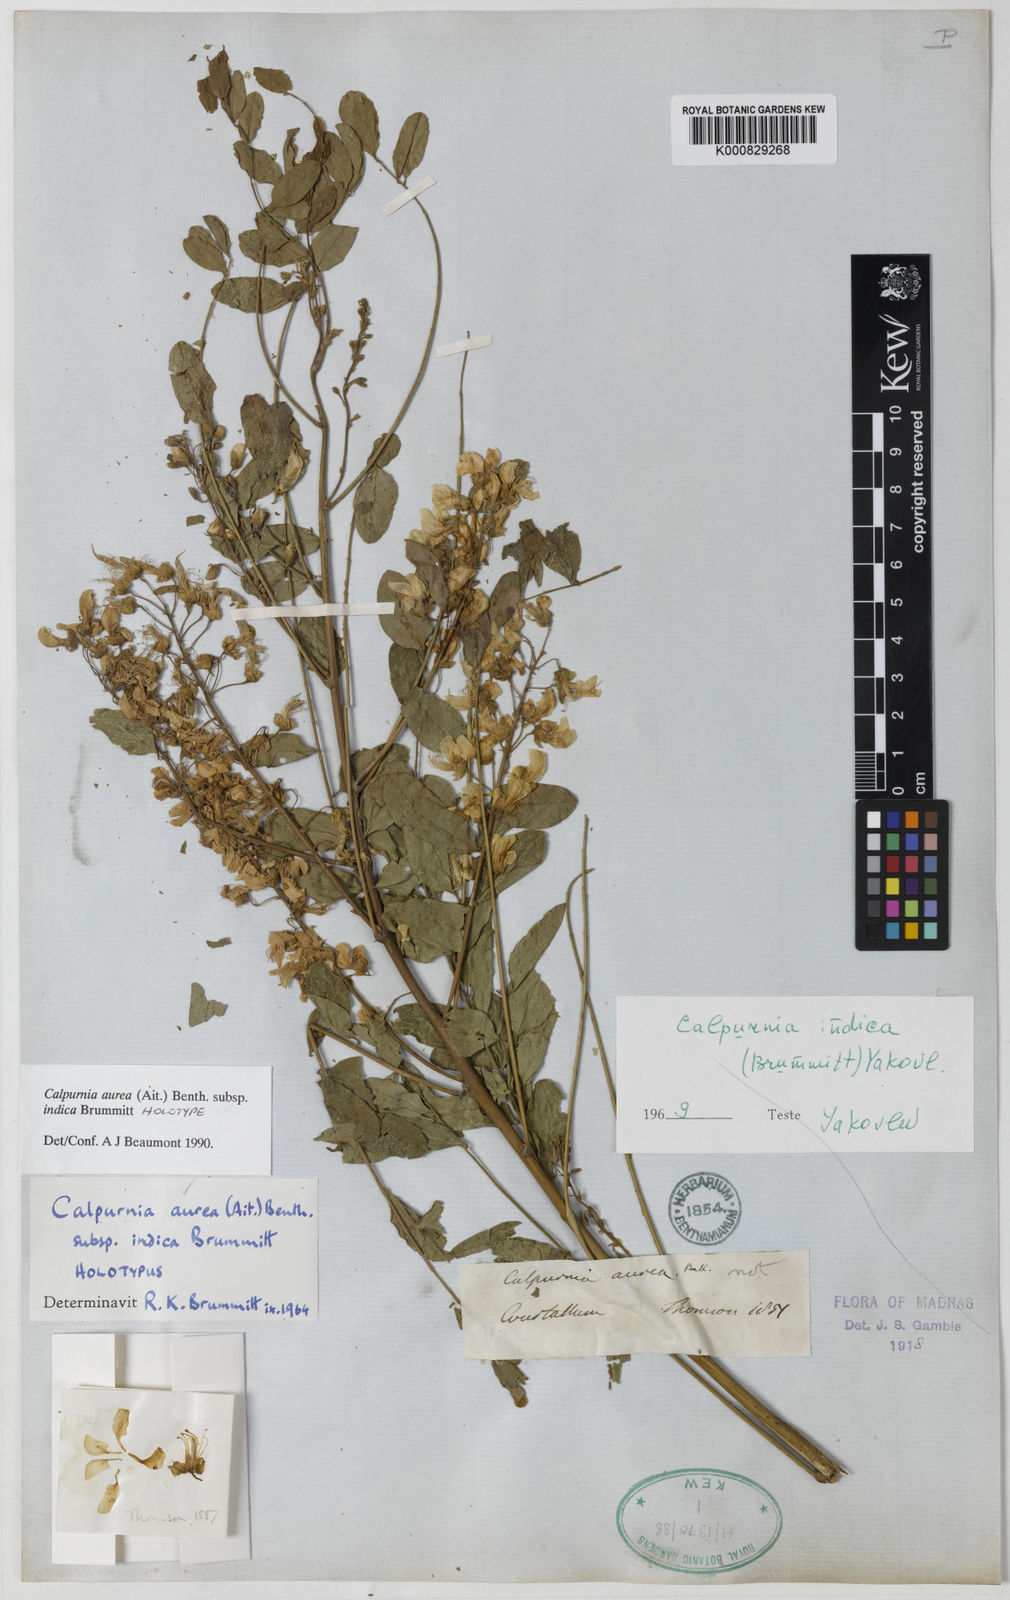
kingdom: Plantae
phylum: Tracheophyta
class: Magnoliopsida
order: Fabales
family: Fabaceae
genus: Calpurnia
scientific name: Calpurnia aurea
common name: Wild laburnum
